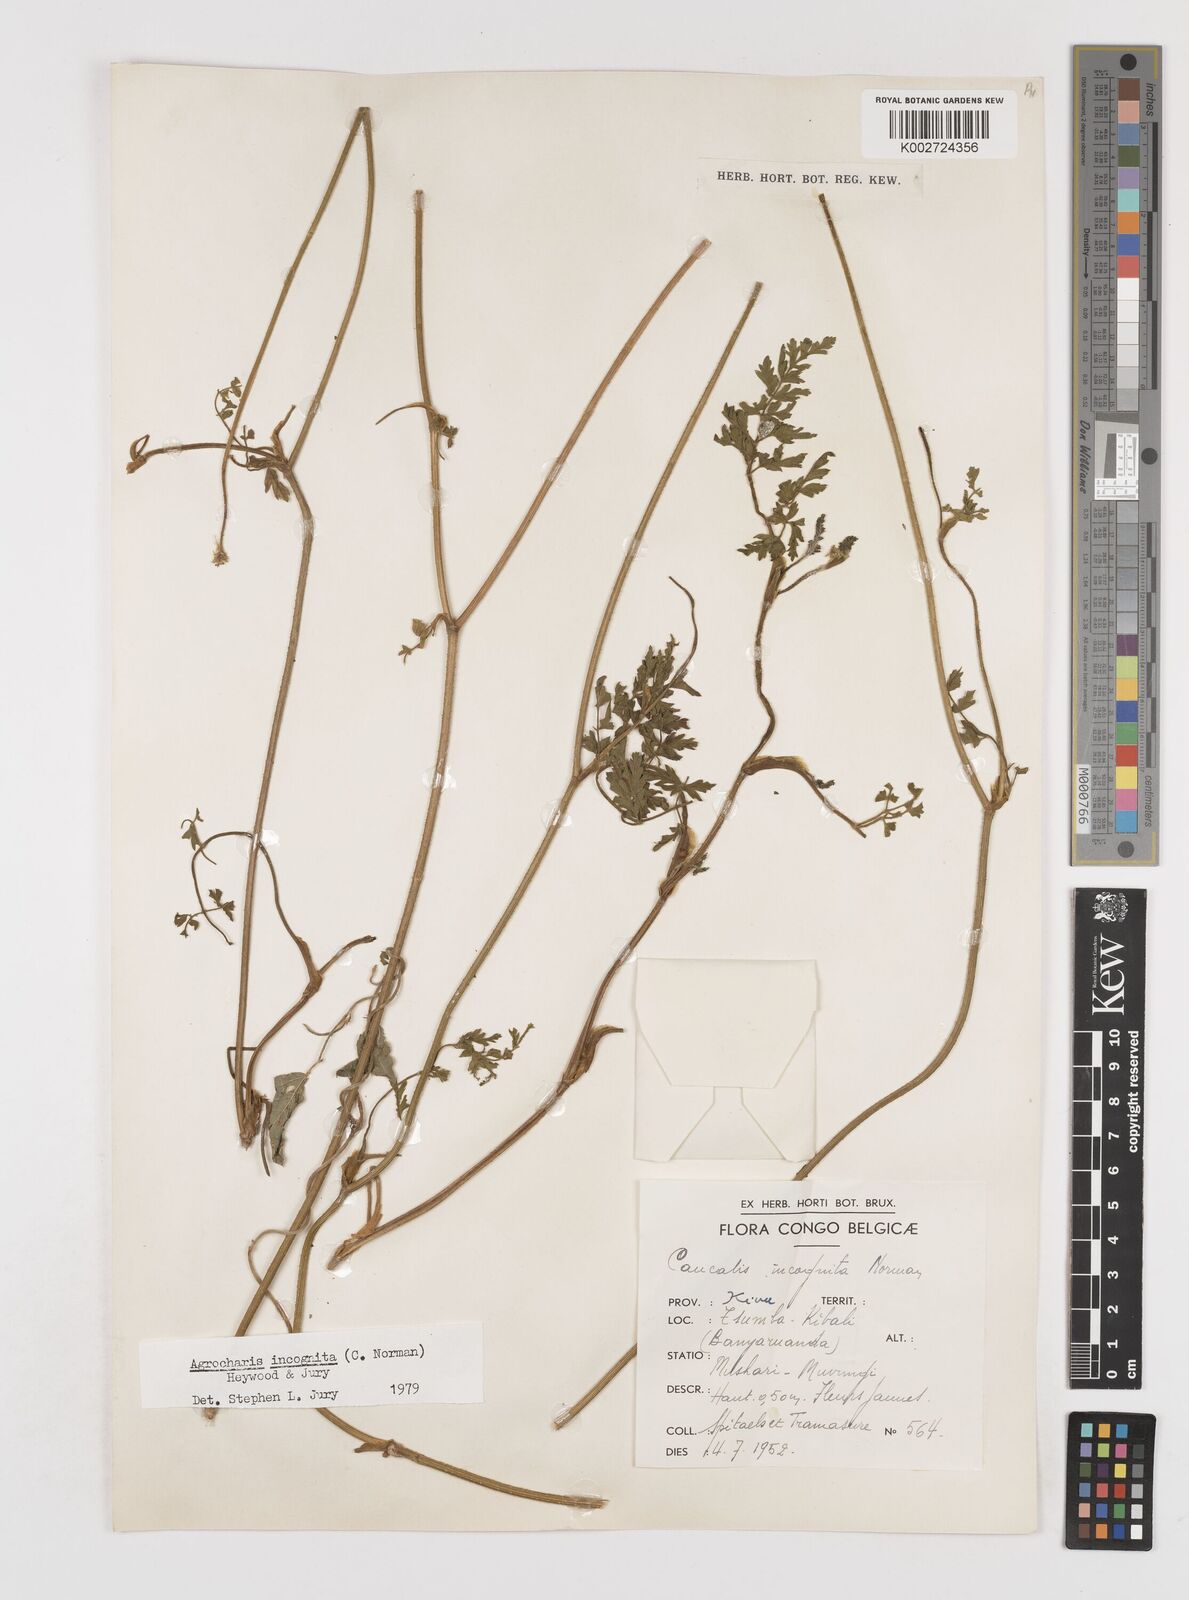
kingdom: Plantae
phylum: Tracheophyta
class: Magnoliopsida
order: Apiales
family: Apiaceae
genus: Daucus
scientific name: Daucus incognitus
